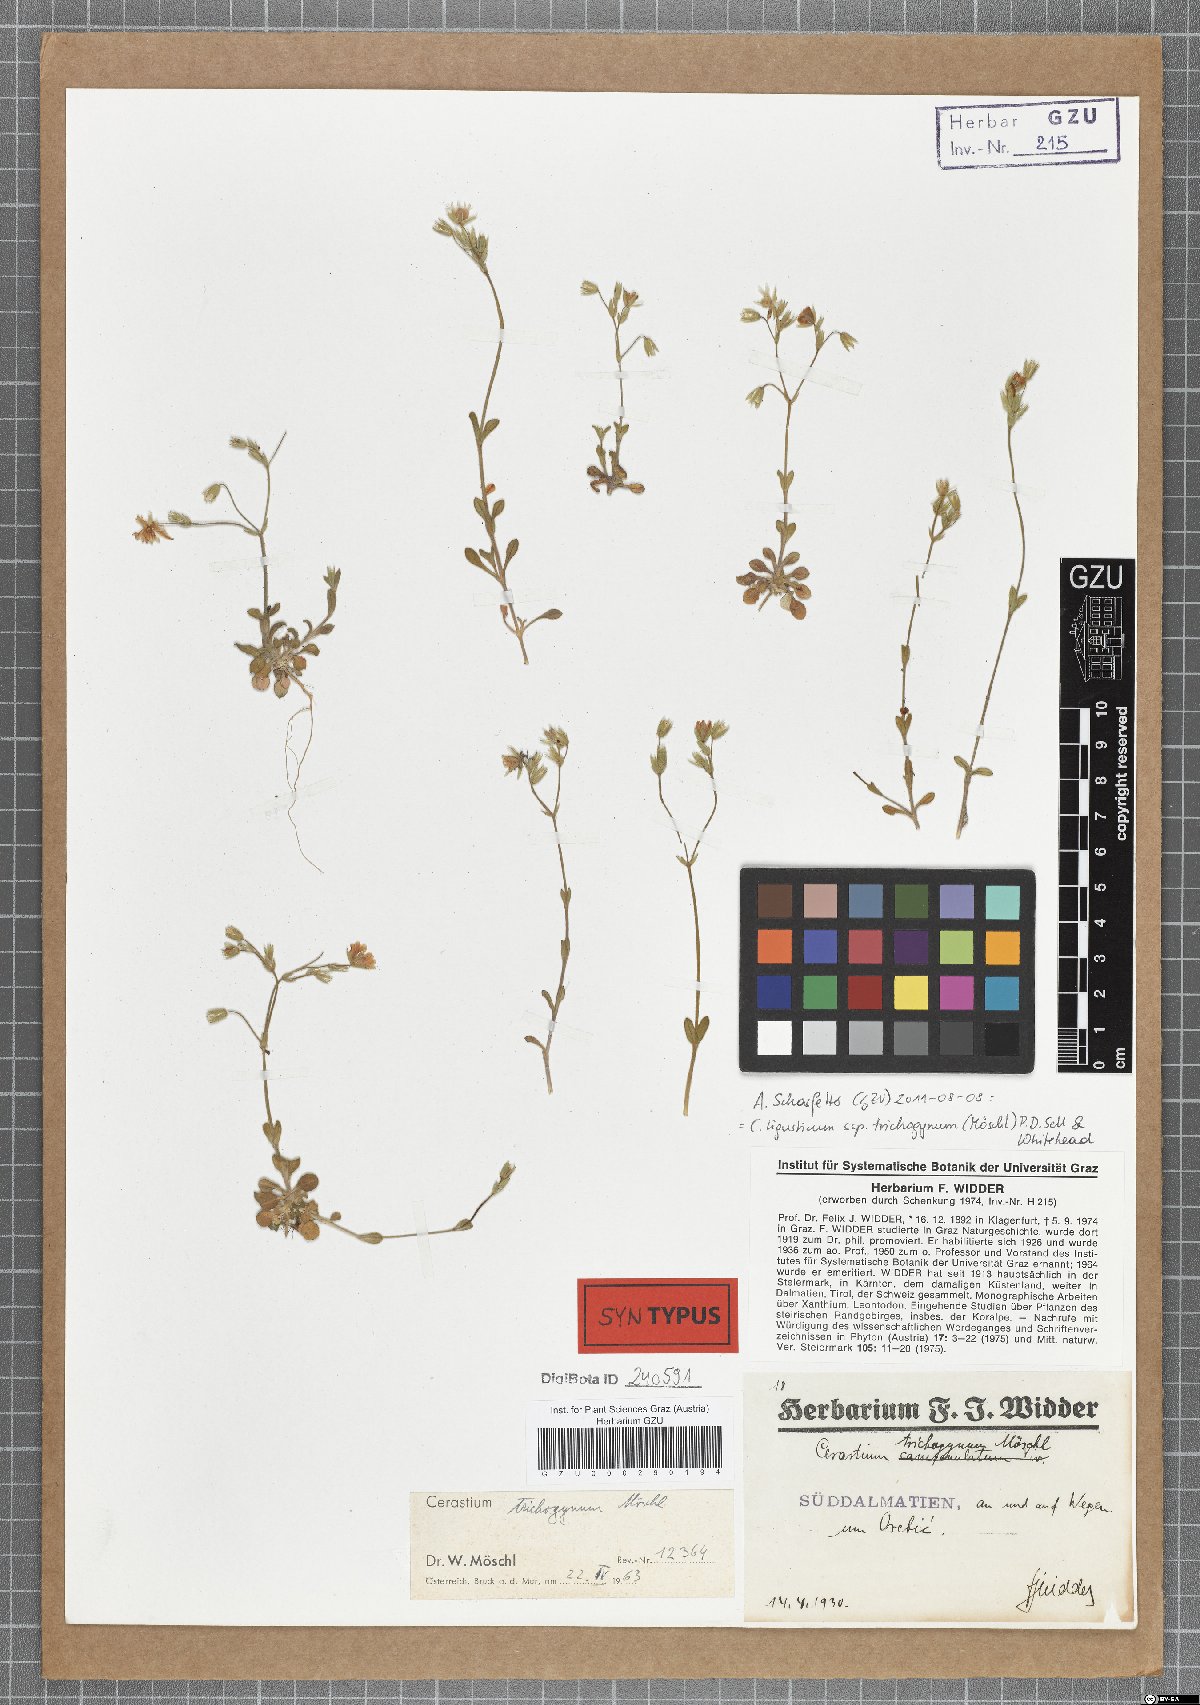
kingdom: Plantae
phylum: Tracheophyta
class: Magnoliopsida
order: Caryophyllales
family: Caryophyllaceae
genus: Cerastium
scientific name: Cerastium ligusticum
